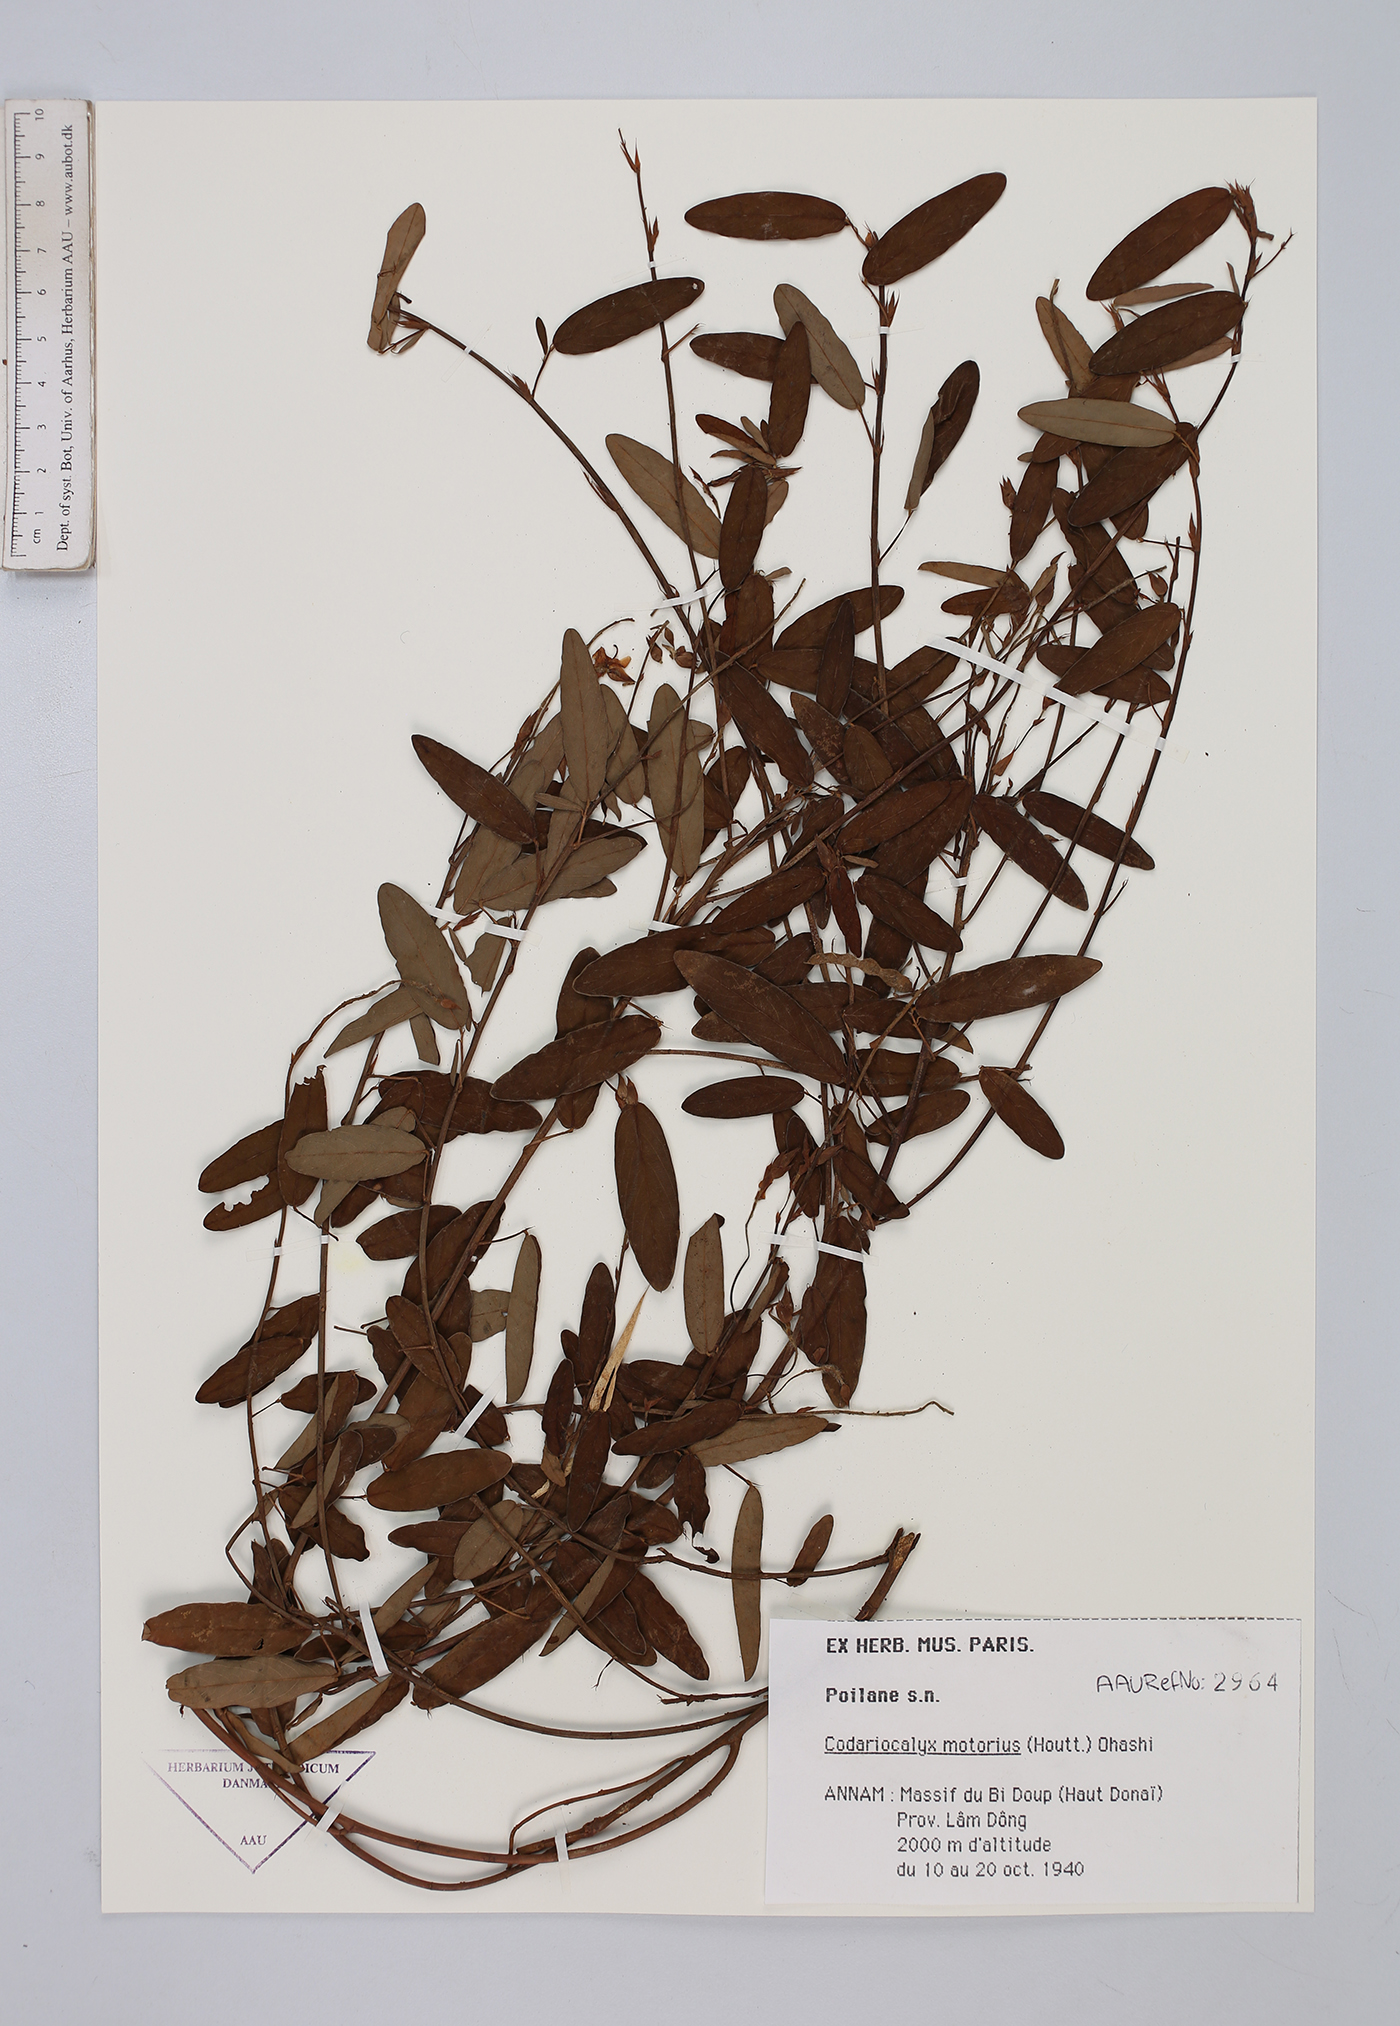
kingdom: Plantae
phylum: Tracheophyta
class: Magnoliopsida
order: Fabales
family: Fabaceae
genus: Codariocalyx
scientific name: Codariocalyx motorius
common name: Telegraph-plant
